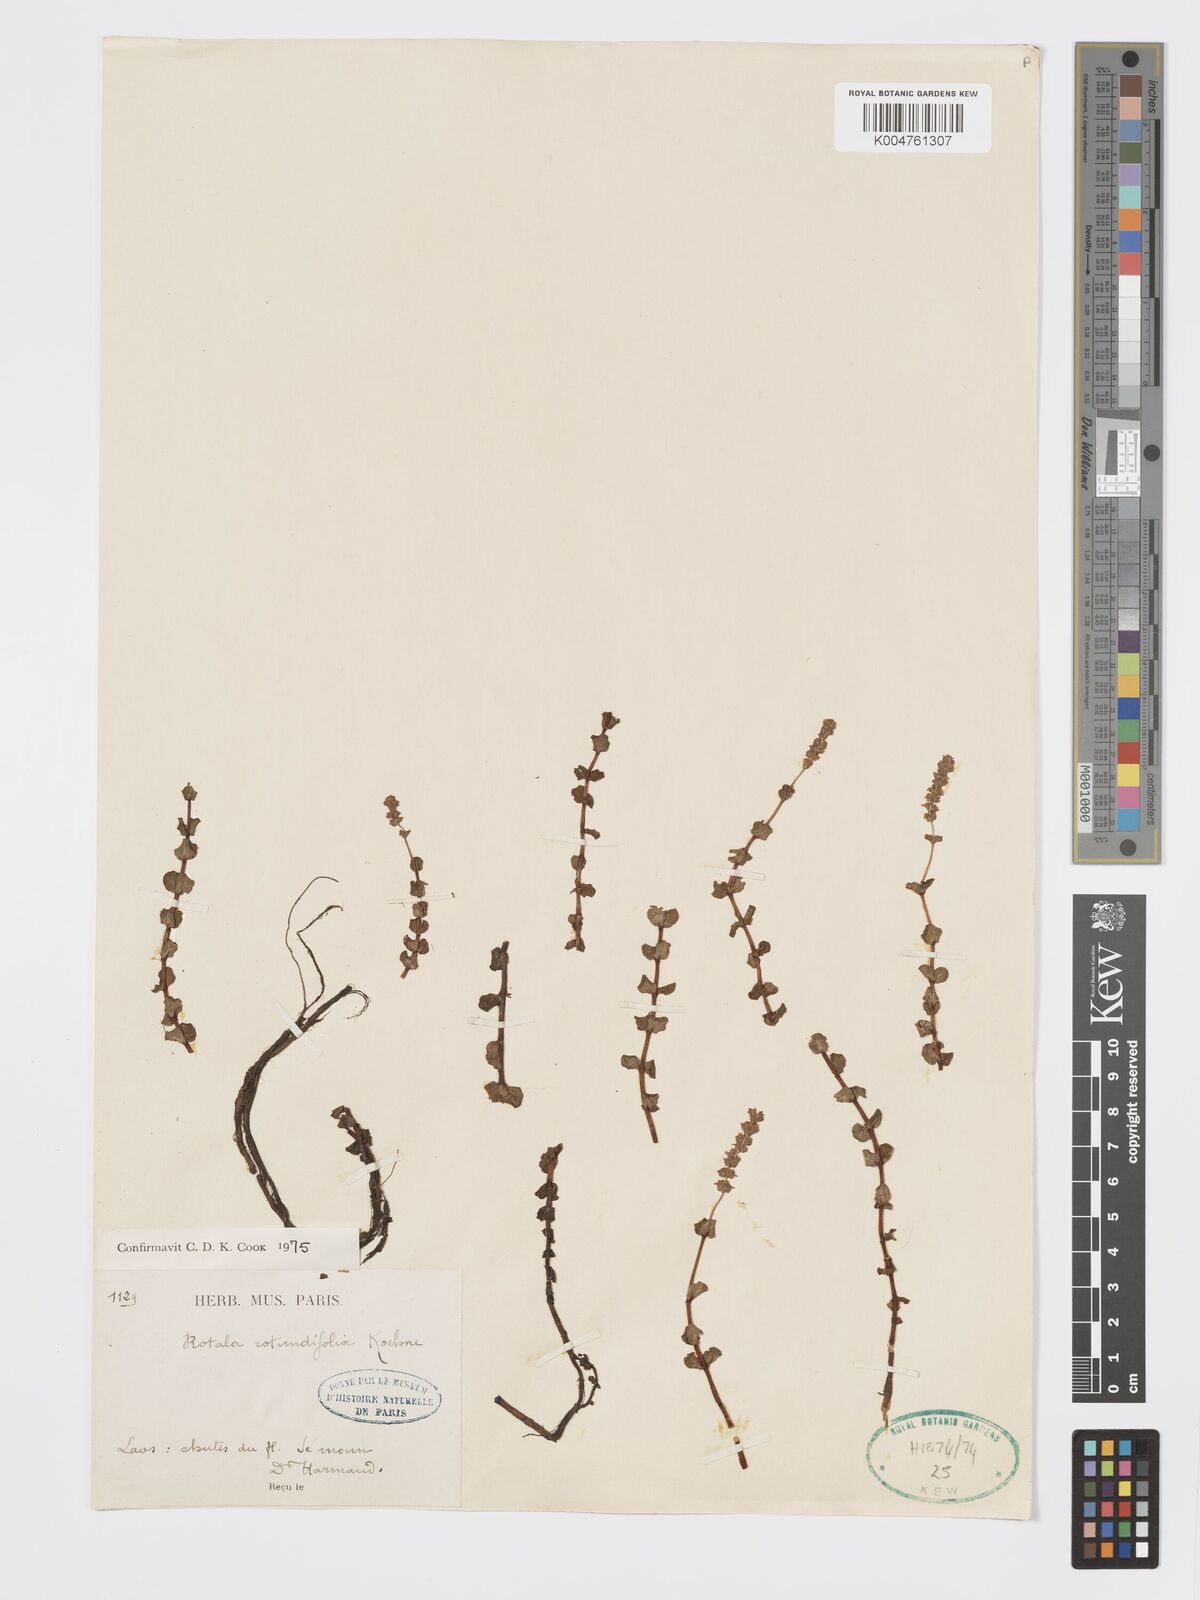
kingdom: Plantae
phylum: Tracheophyta
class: Magnoliopsida
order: Myrtales
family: Lythraceae
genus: Rotala
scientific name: Rotala rotundifolia
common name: Roundleaf toothcup
